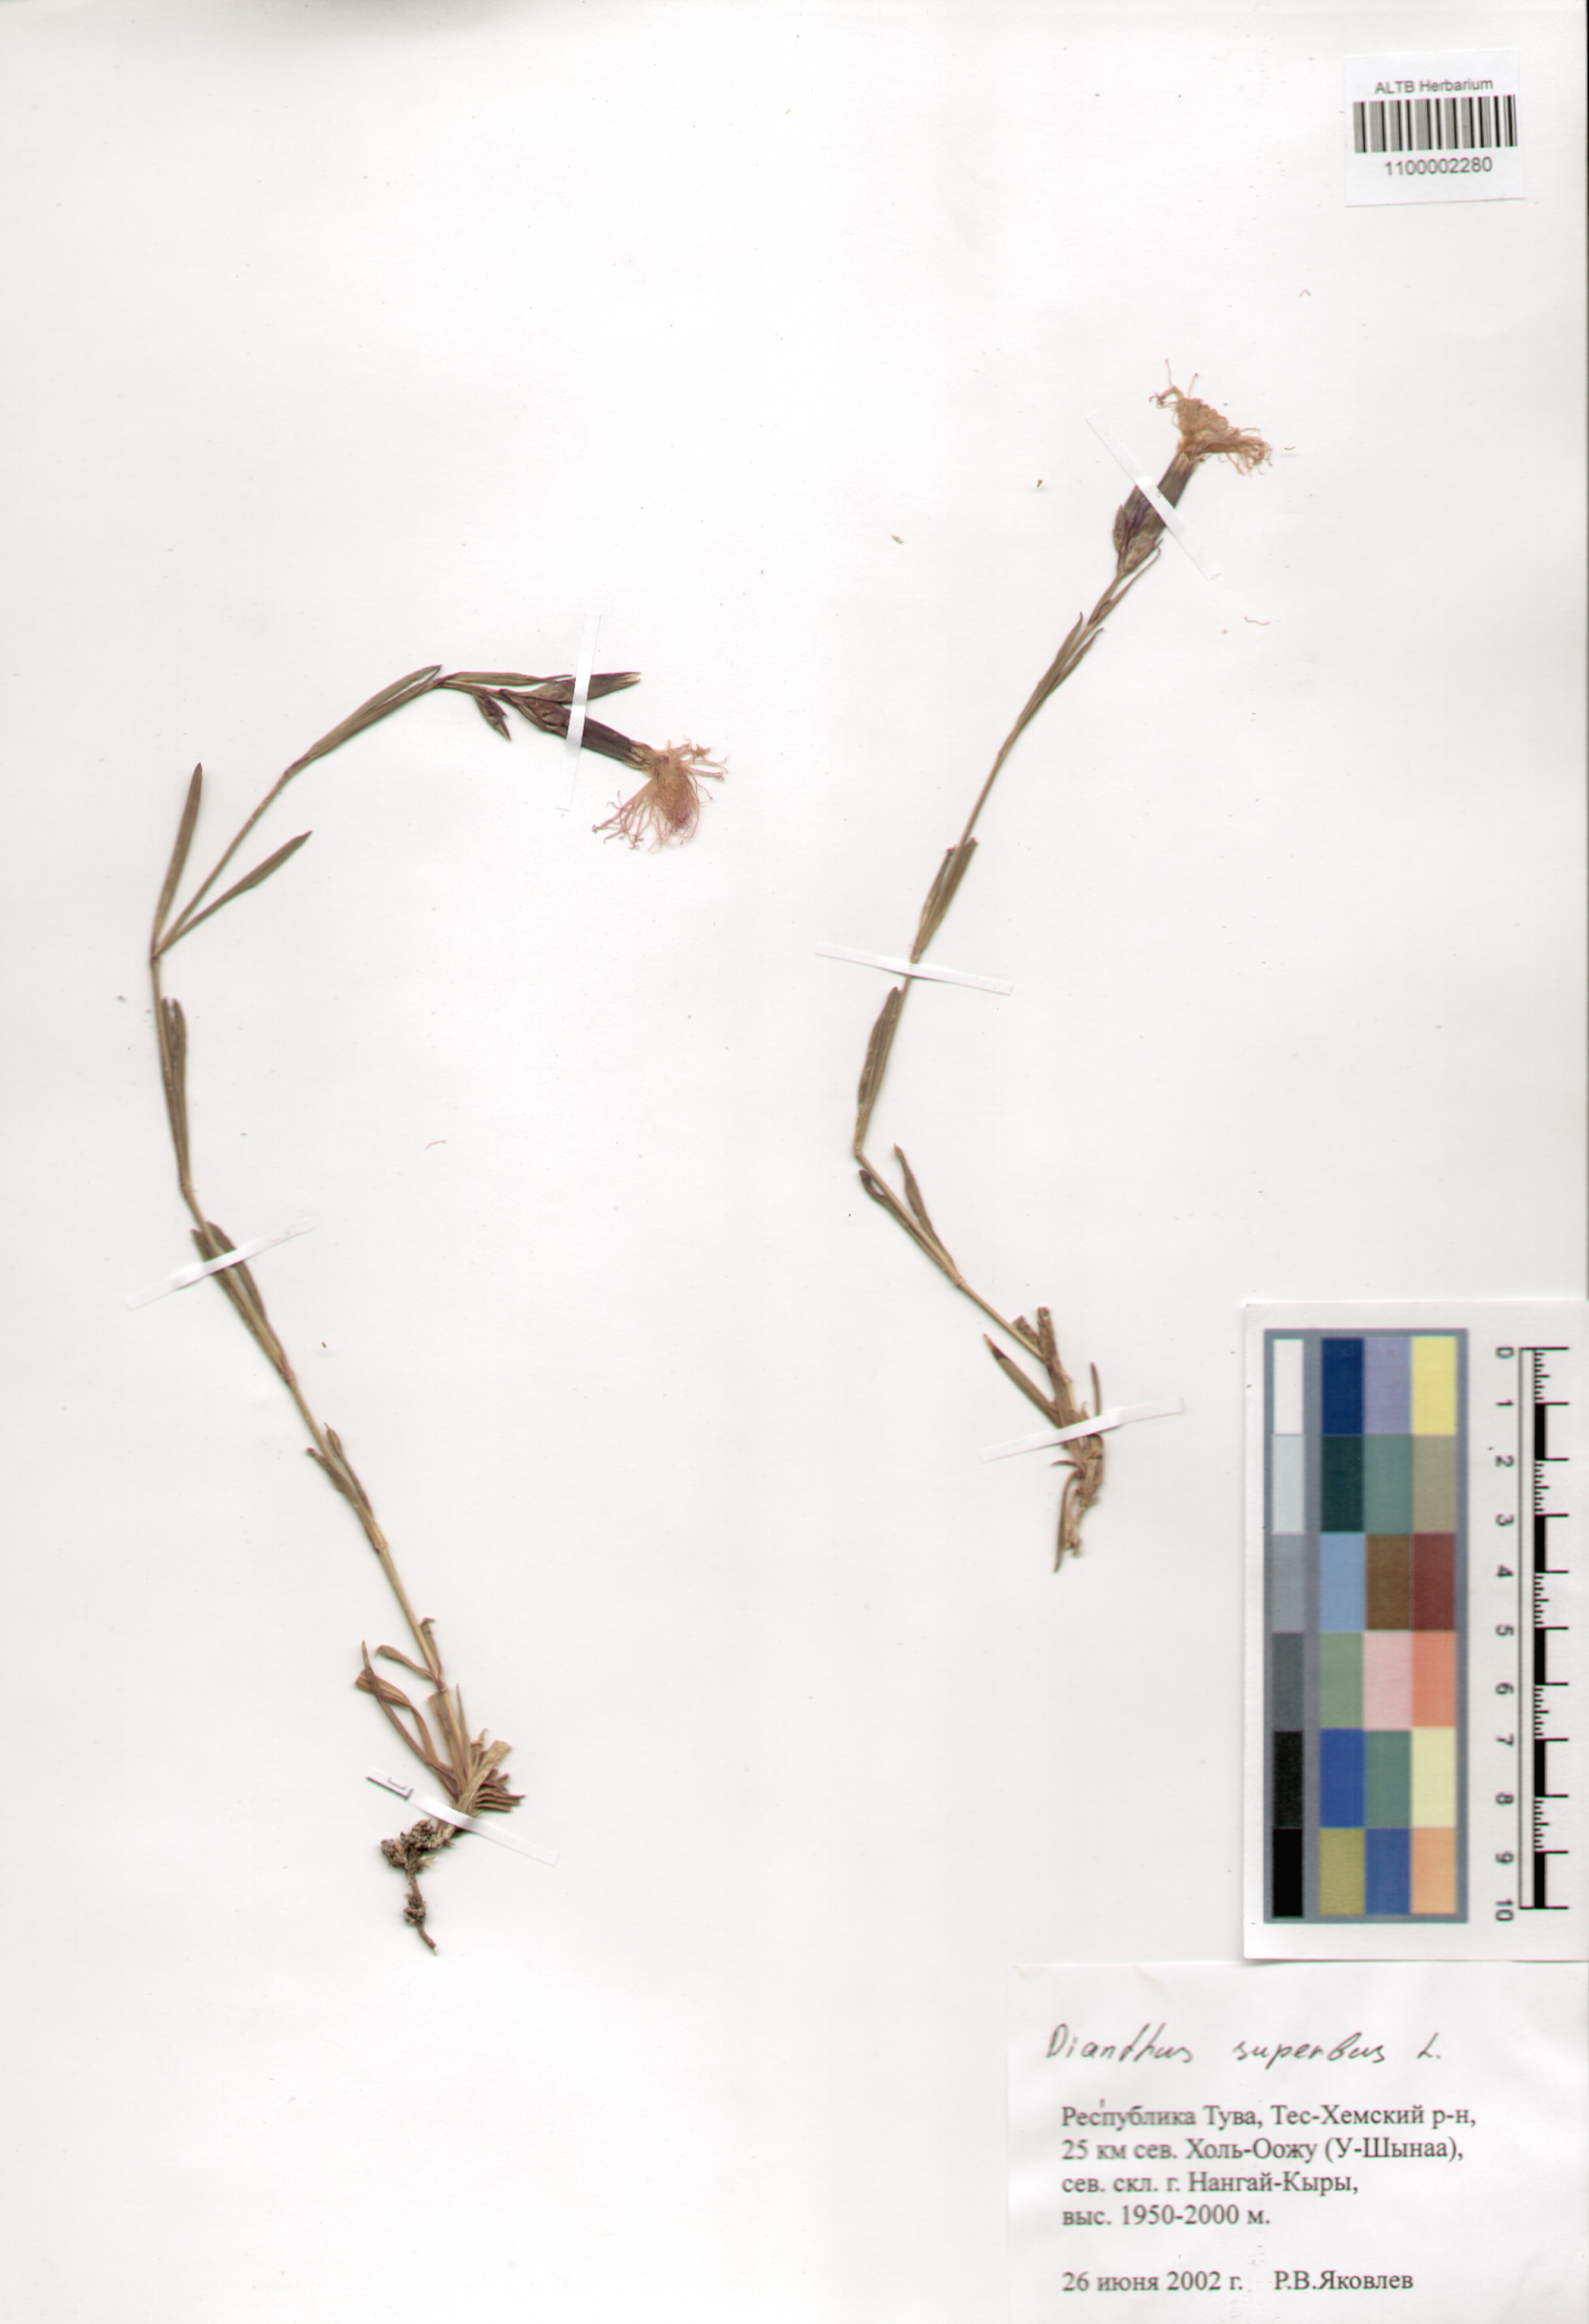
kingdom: Plantae
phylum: Tracheophyta
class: Magnoliopsida
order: Caryophyllales
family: Caryophyllaceae
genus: Dianthus
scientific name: Dianthus superbus
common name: Fringed pink
